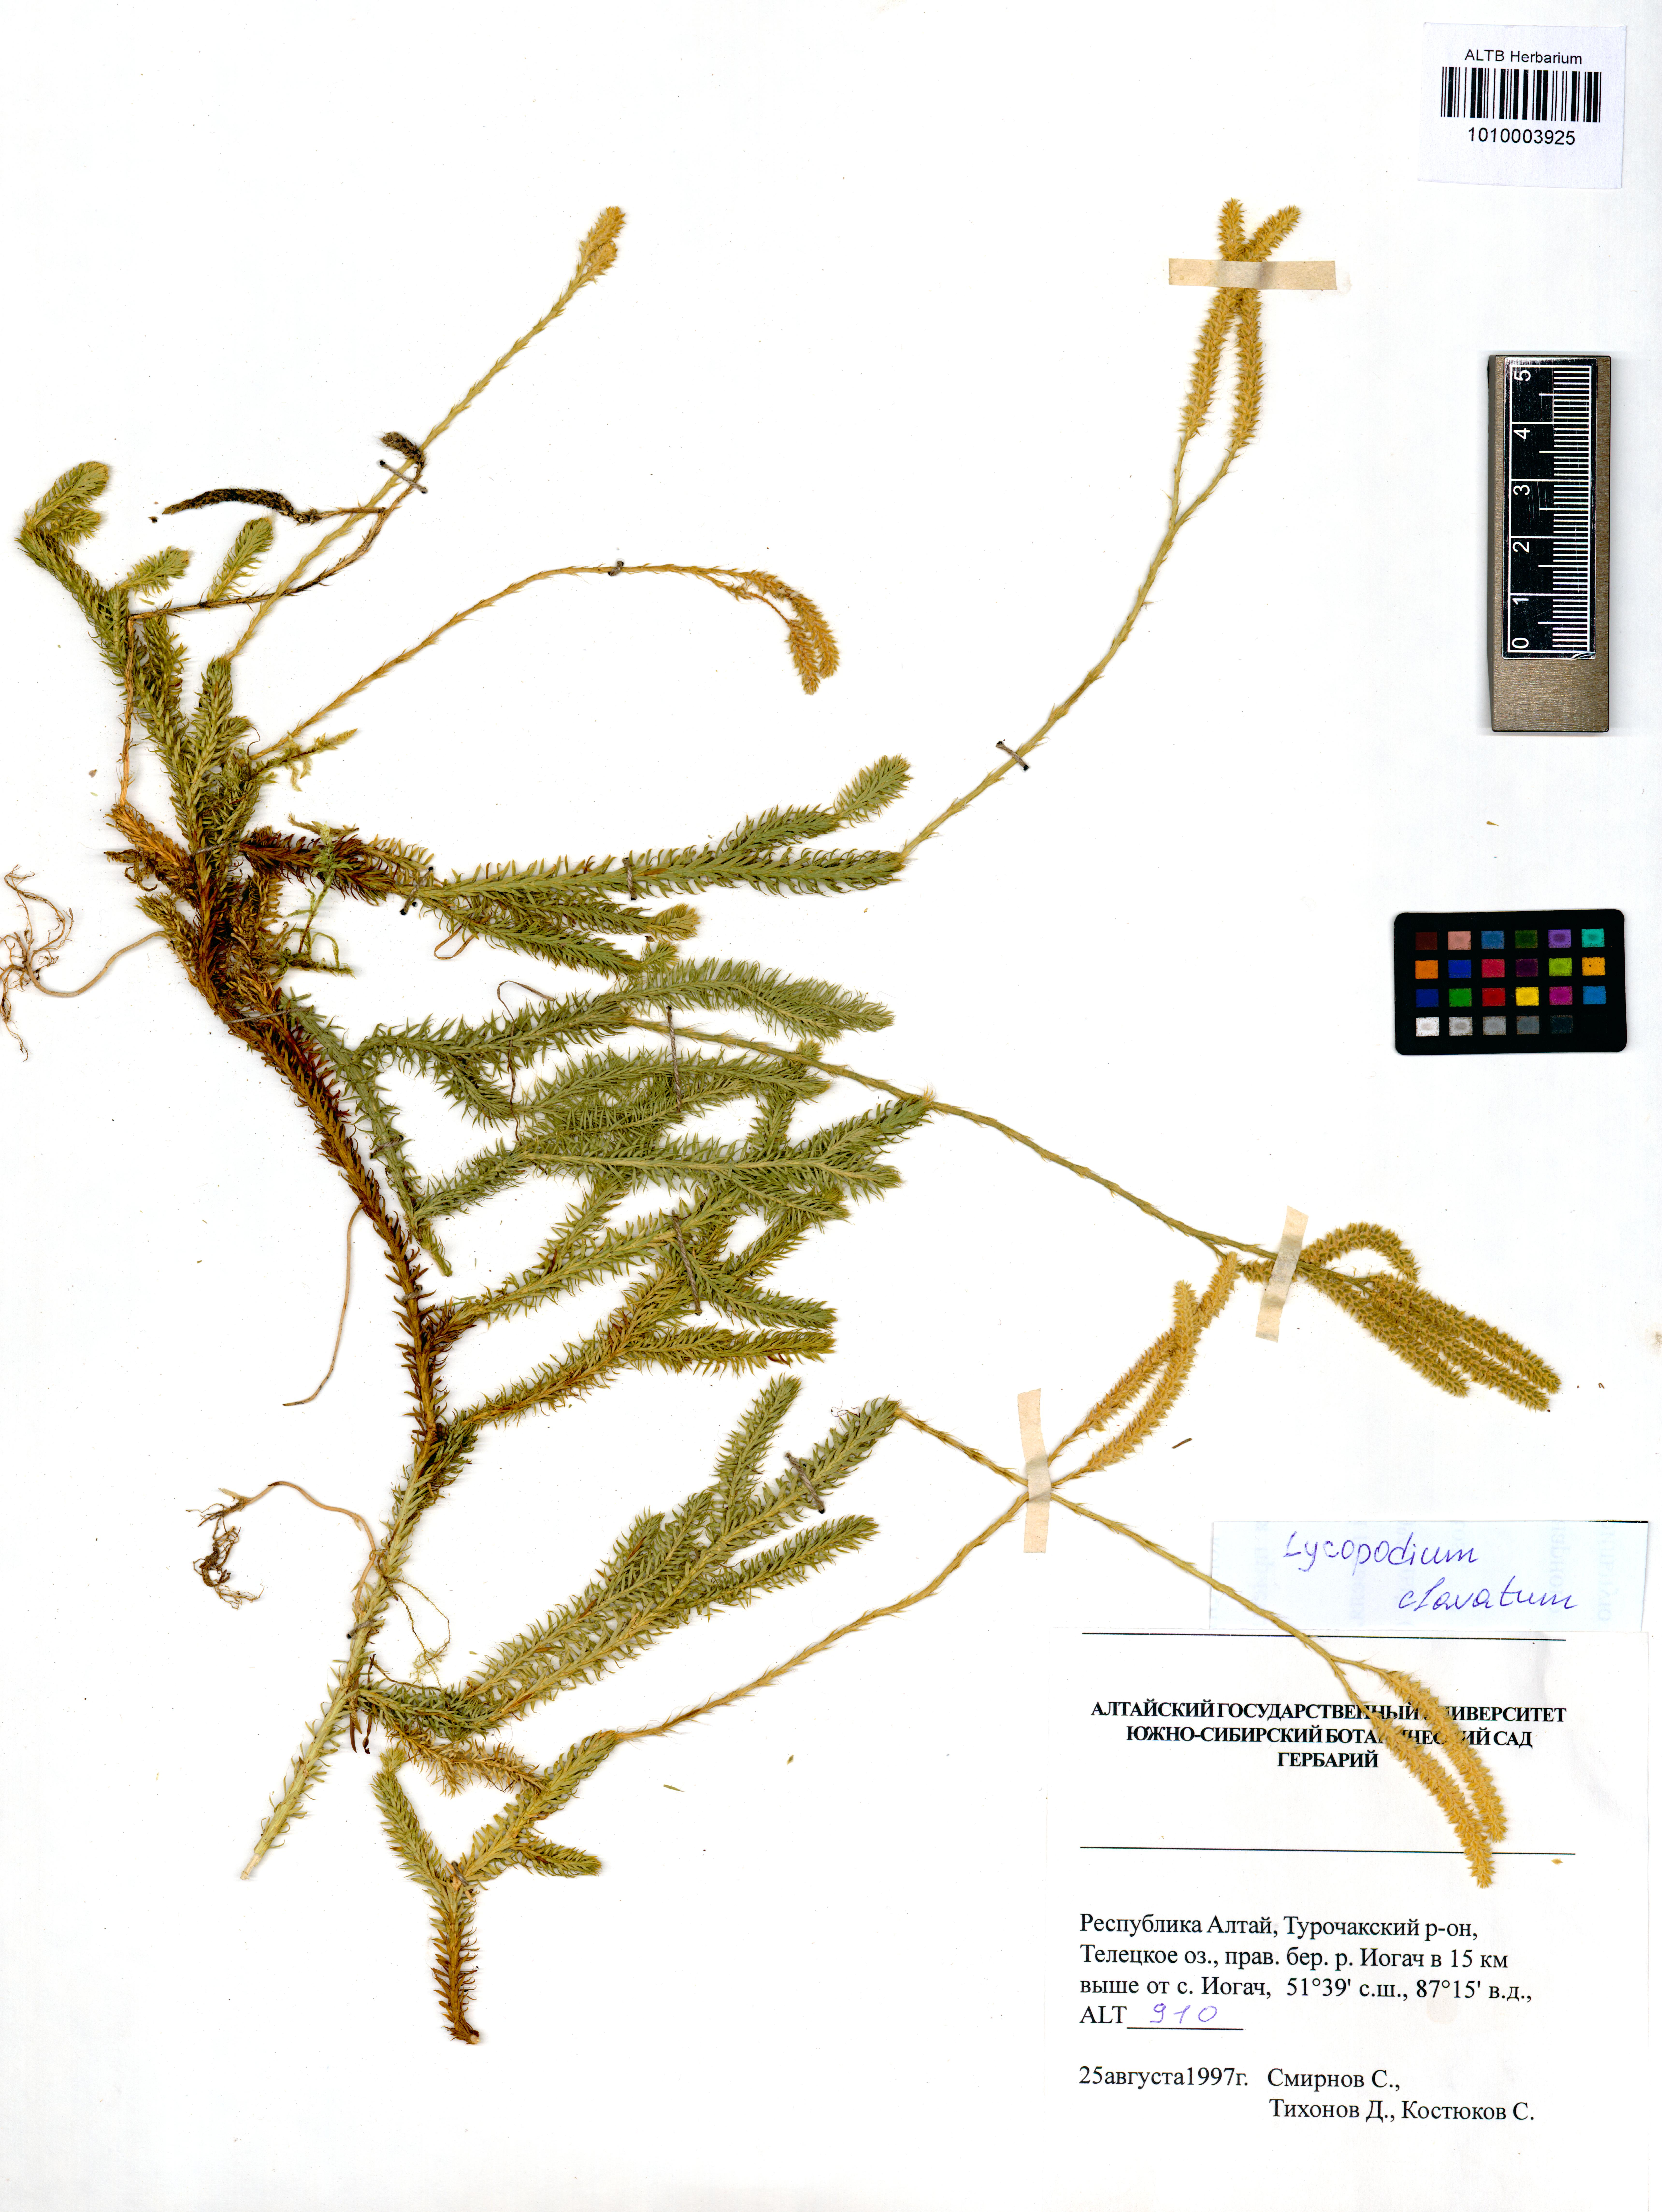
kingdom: Plantae
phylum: Tracheophyta
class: Lycopodiopsida
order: Lycopodiales
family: Lycopodiaceae
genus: Lycopodium
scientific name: Lycopodium clavatum
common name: Stag's-horn clubmoss
